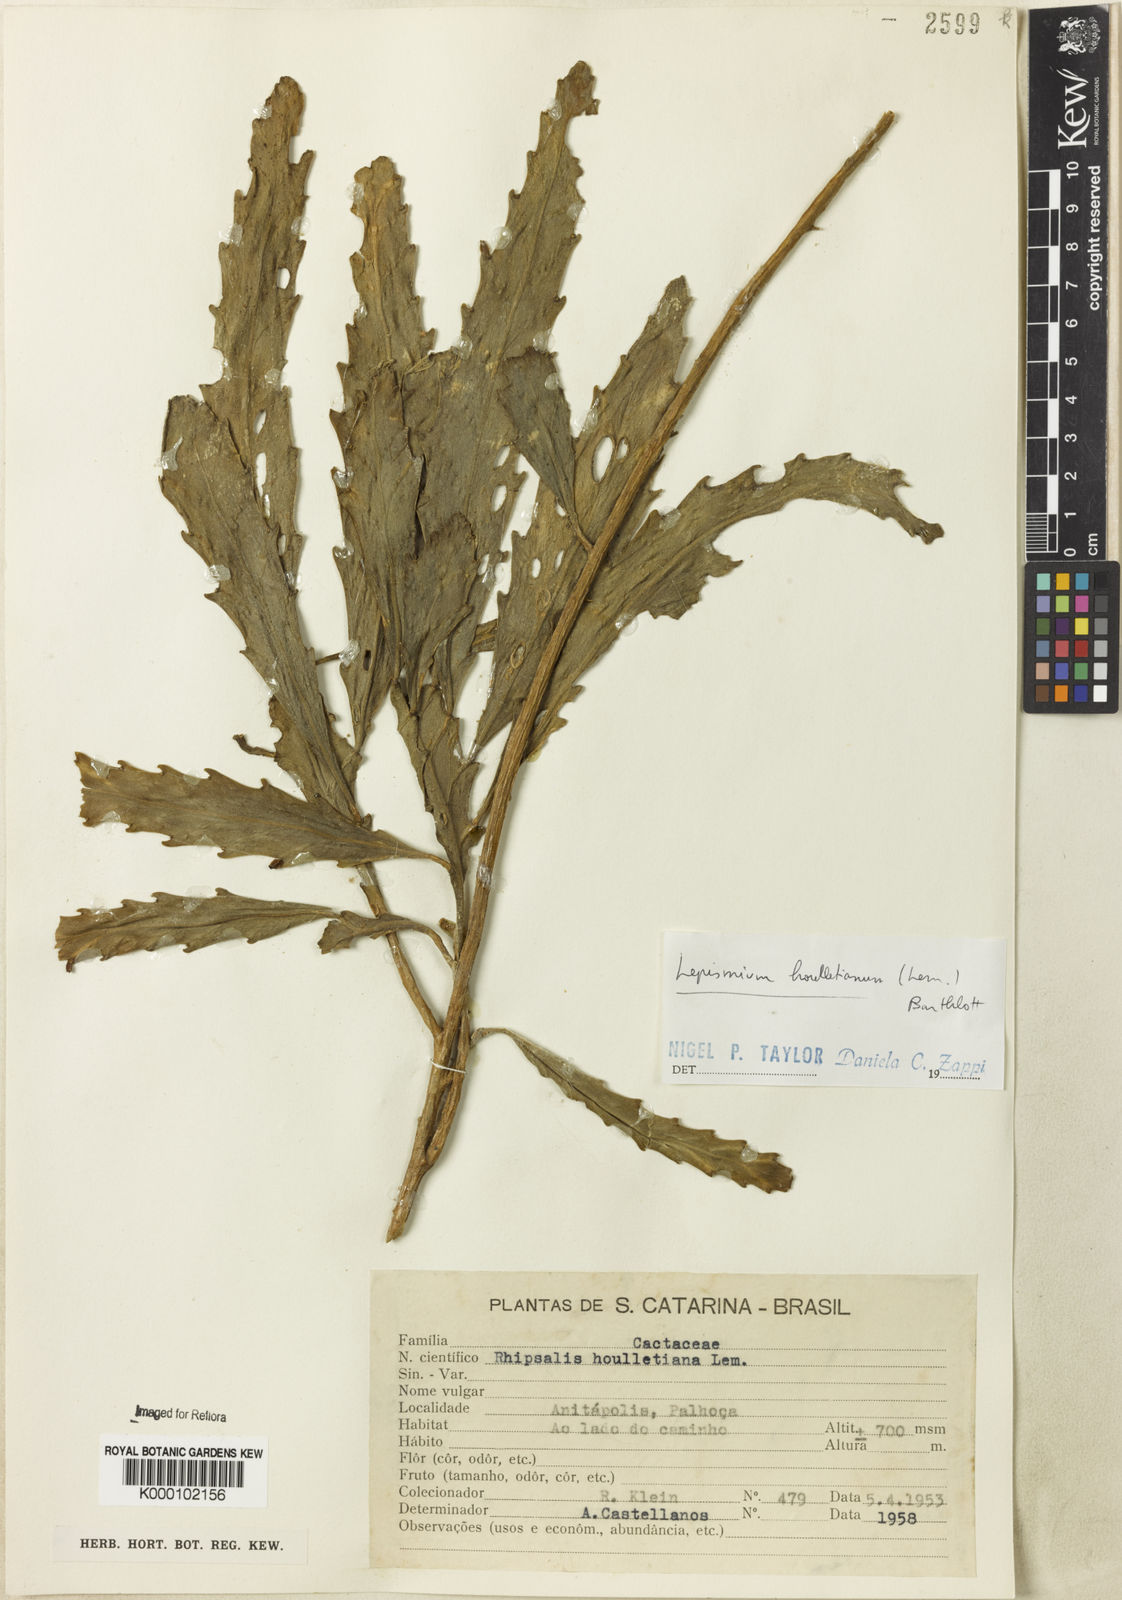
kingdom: Plantae
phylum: Tracheophyta
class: Magnoliopsida
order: Caryophyllales
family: Cactaceae
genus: Lepismium
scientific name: Lepismium houlletianum
